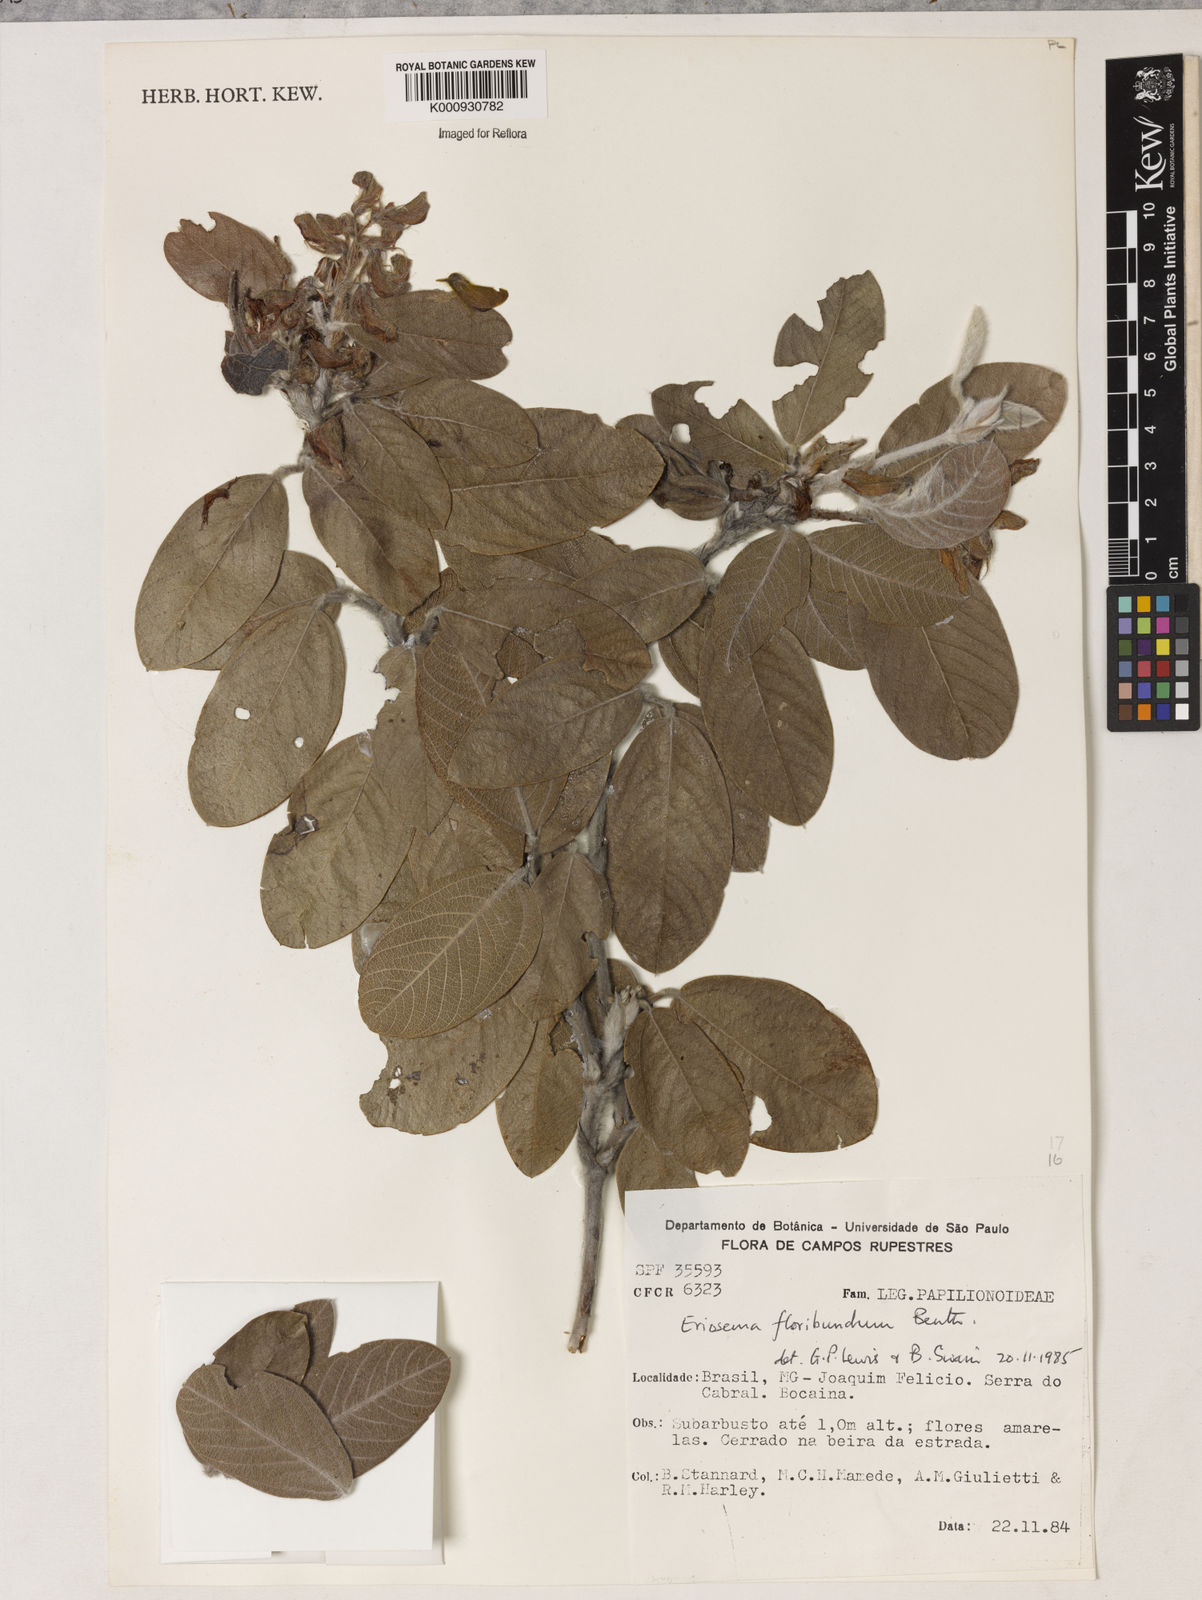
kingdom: Plantae
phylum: Tracheophyta
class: Magnoliopsida
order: Fabales
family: Fabaceae
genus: Eriosema
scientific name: Eriosema floribundum
